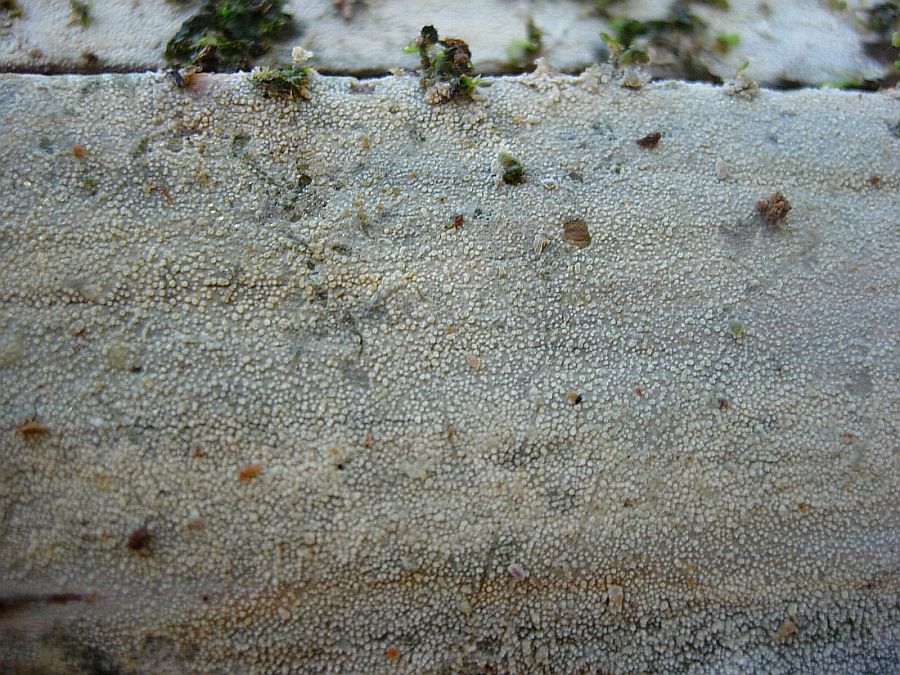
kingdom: Fungi
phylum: Basidiomycota
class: Agaricomycetes
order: Hymenochaetales
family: Rickenellaceae
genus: Resinicium
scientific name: Resinicium bicolor
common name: almindelig vokstand
